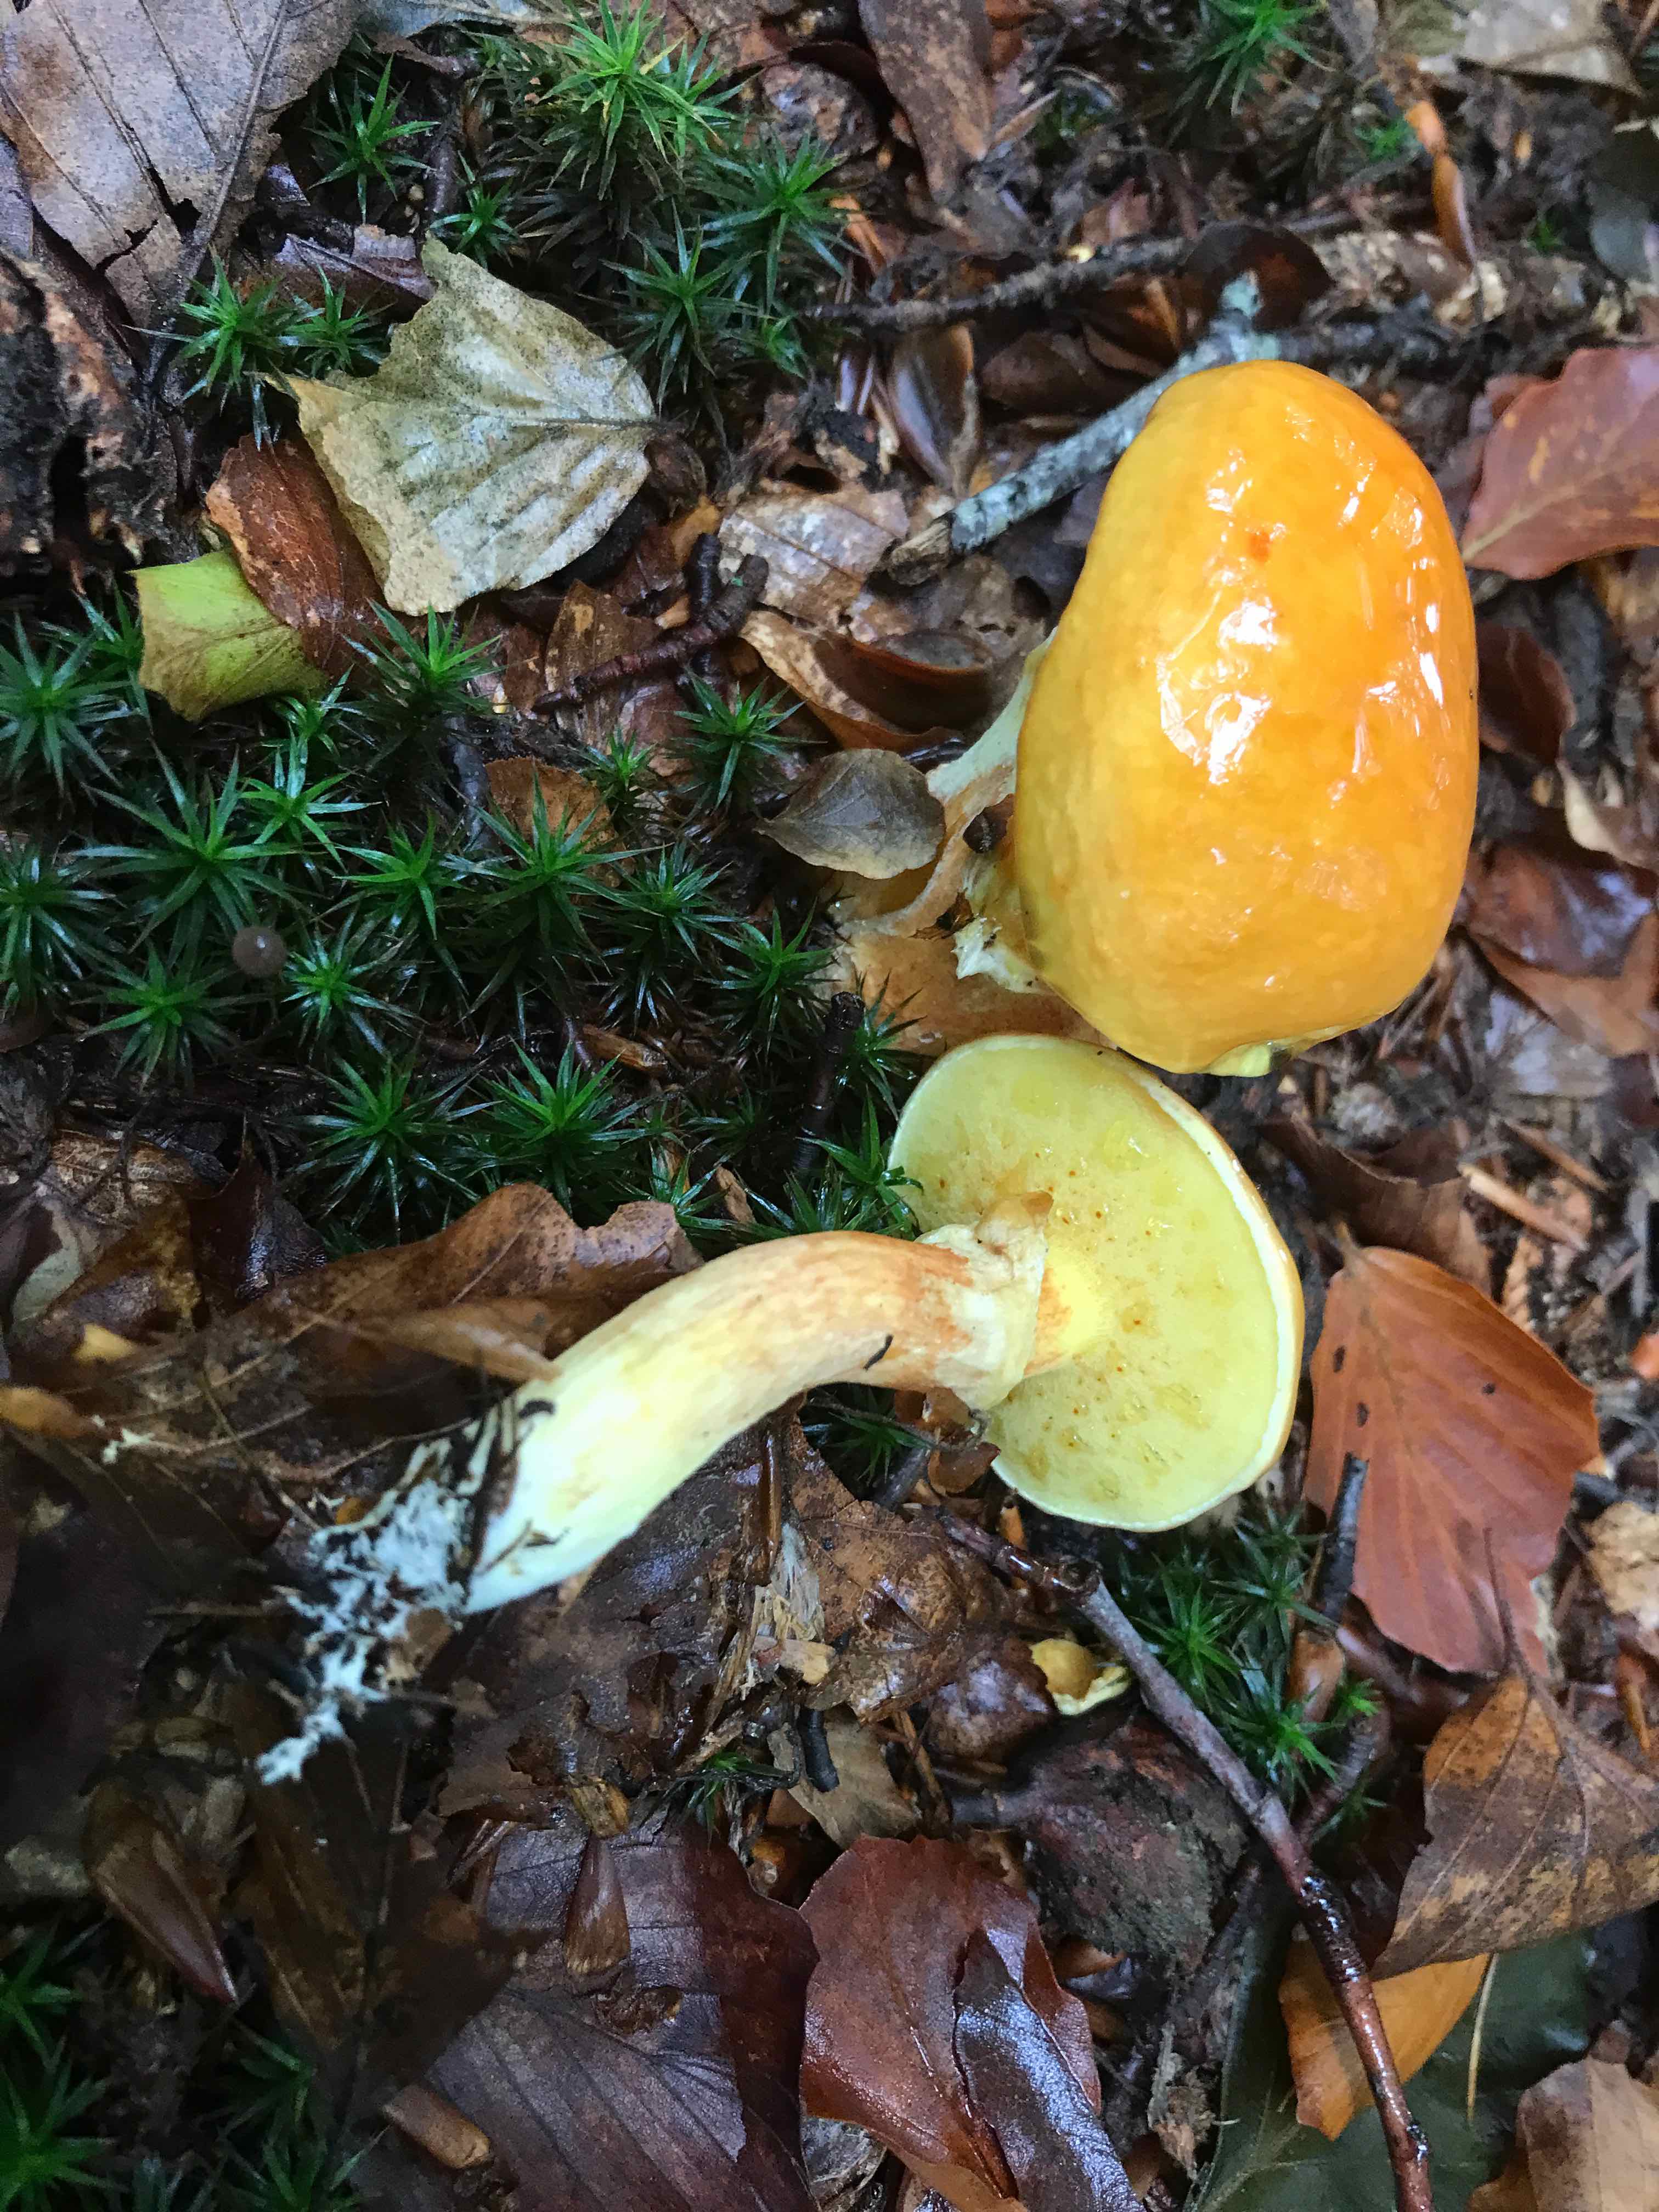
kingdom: Fungi
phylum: Basidiomycota
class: Agaricomycetes
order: Boletales
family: Suillaceae
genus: Suillus
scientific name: Suillus grevillei
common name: lærke-slimrørhat
